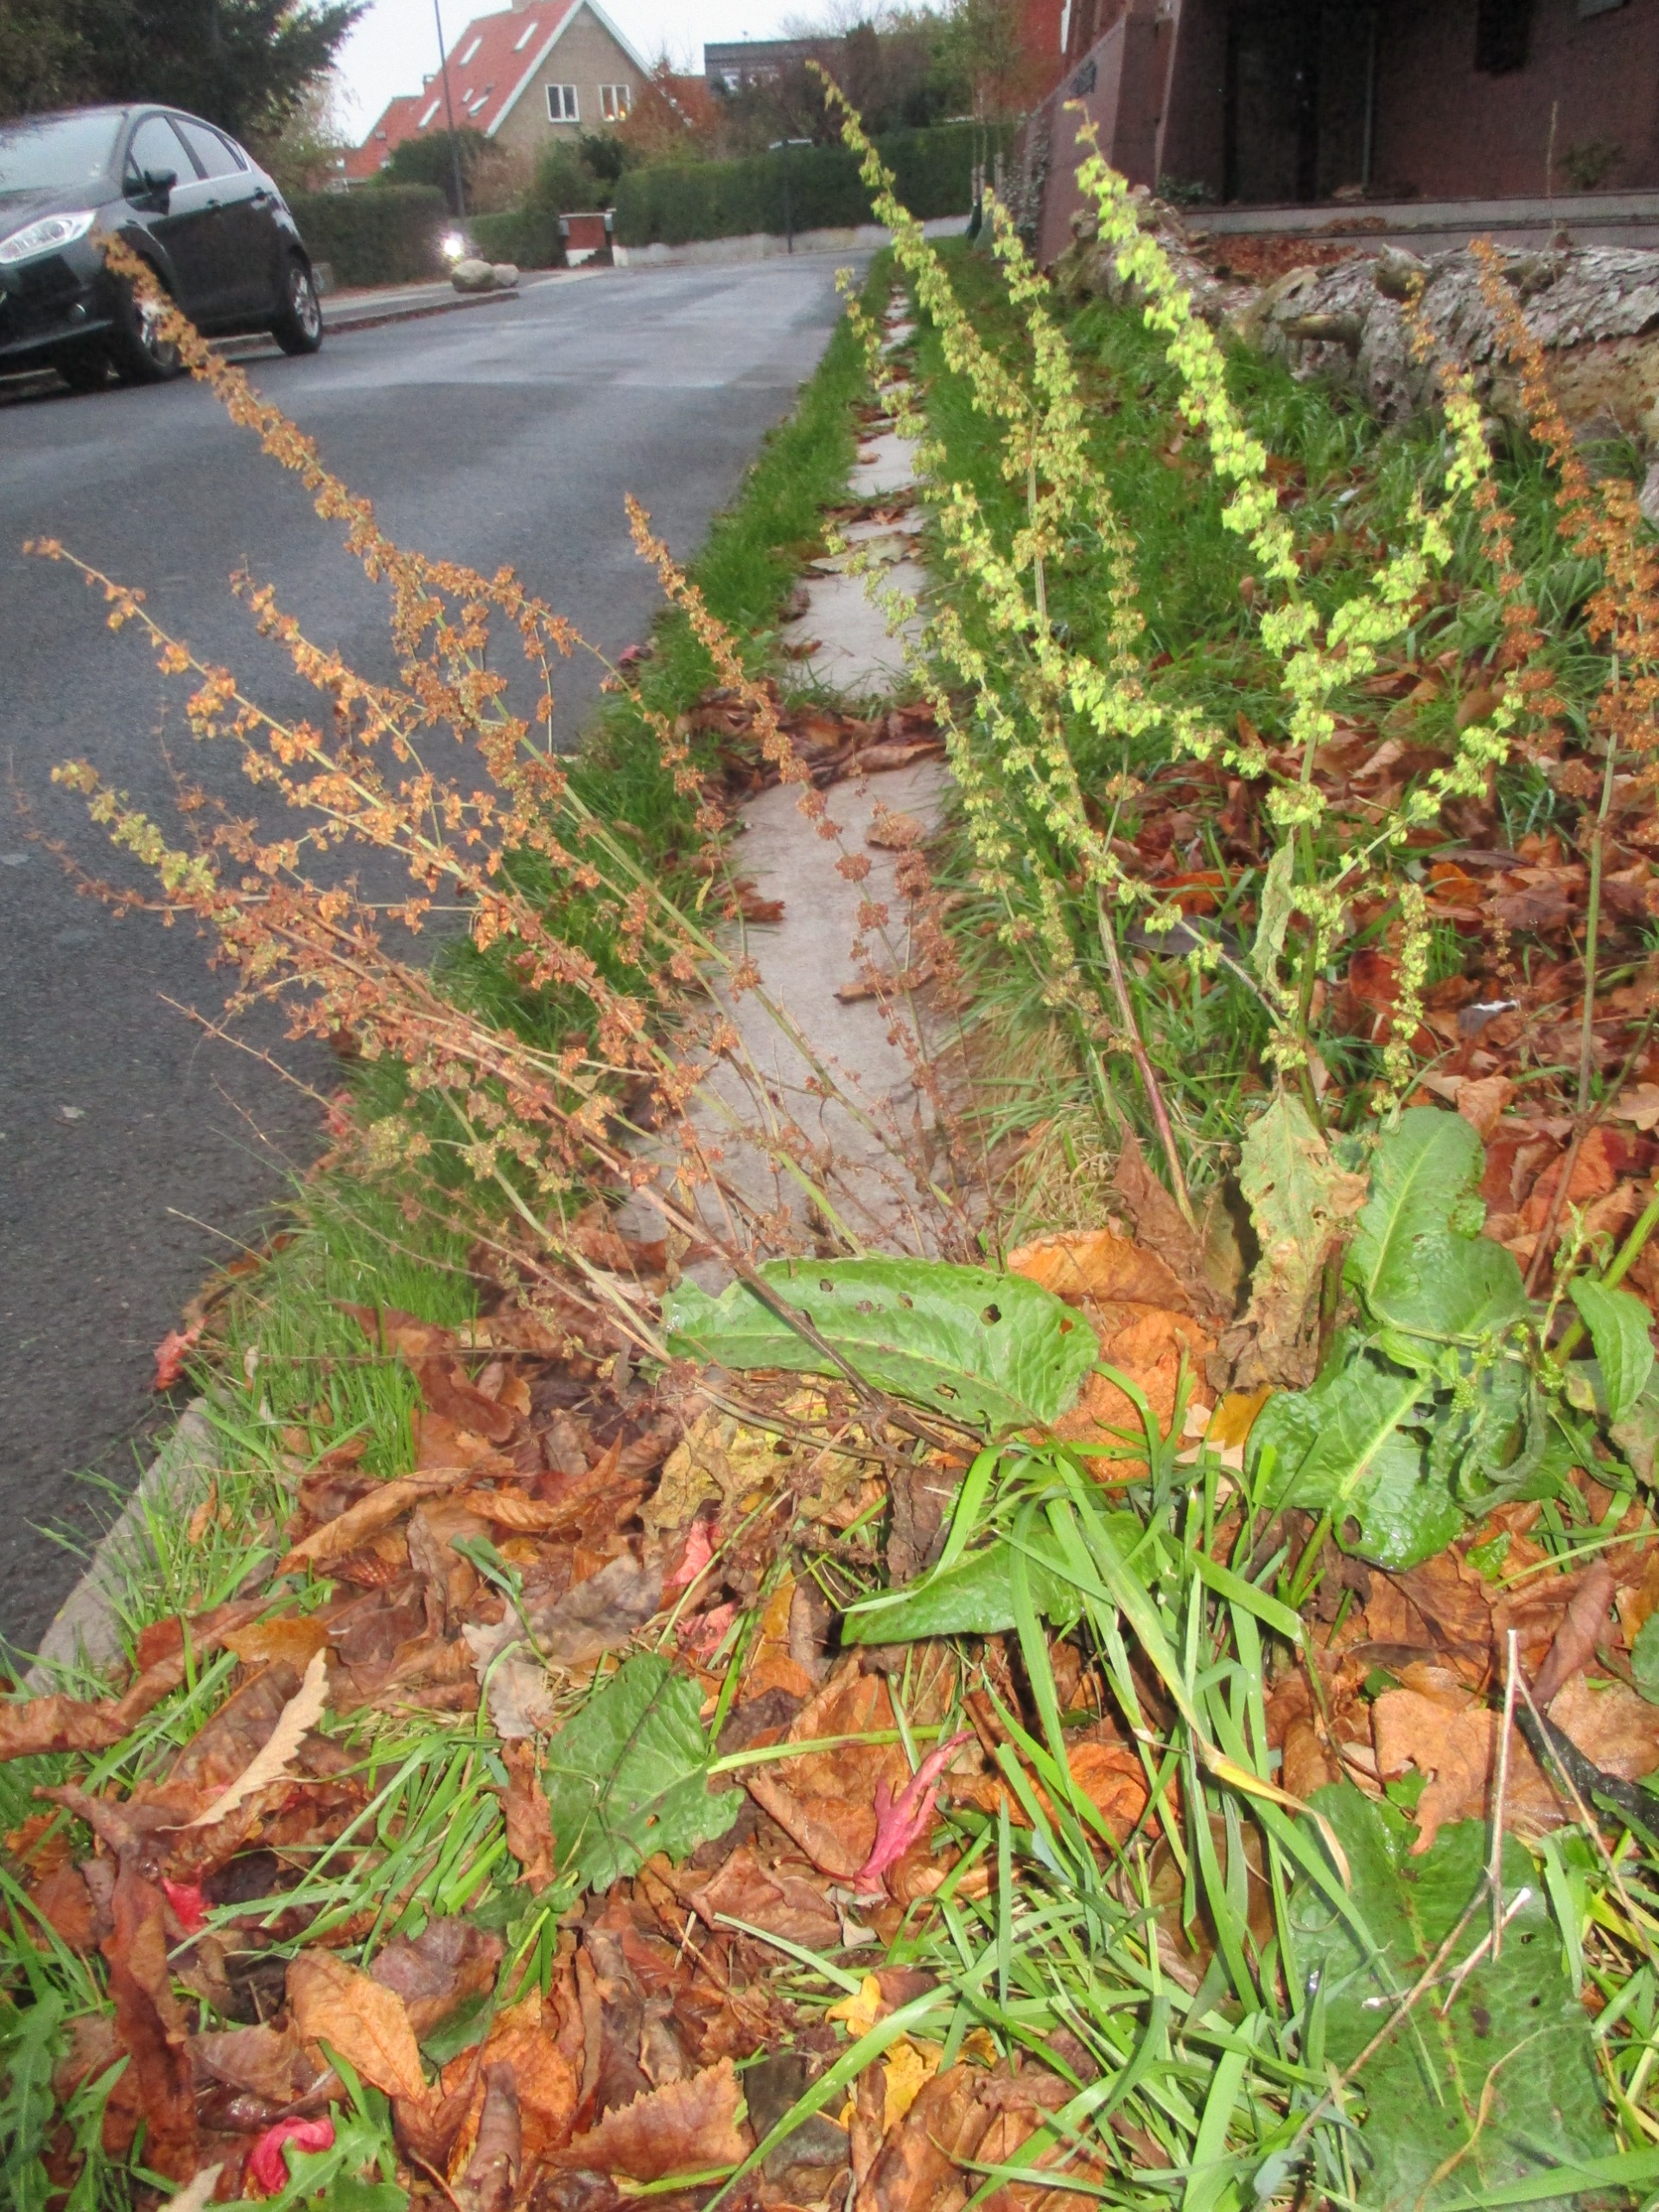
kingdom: Plantae
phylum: Tracheophyta
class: Magnoliopsida
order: Caryophyllales
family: Polygonaceae
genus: Rumex
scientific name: Rumex obtusifolius
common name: Butbladet skræppe
